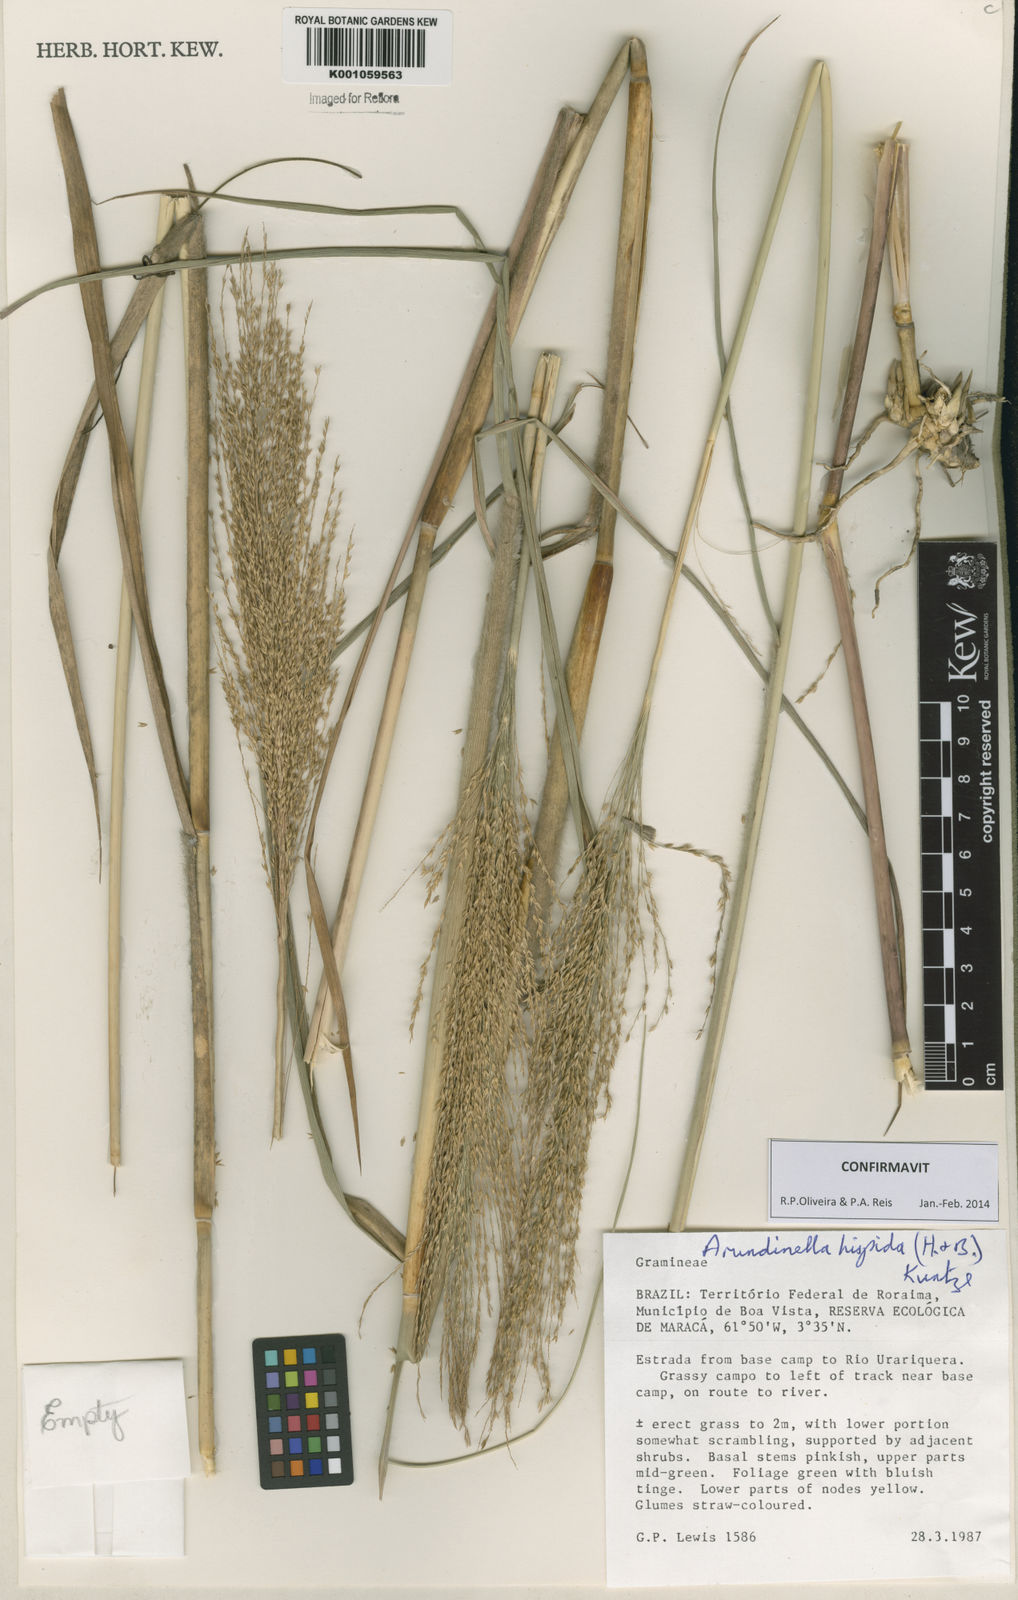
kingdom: Plantae
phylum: Tracheophyta
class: Liliopsida
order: Poales
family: Poaceae
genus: Arundinella
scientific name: Arundinella hispida
